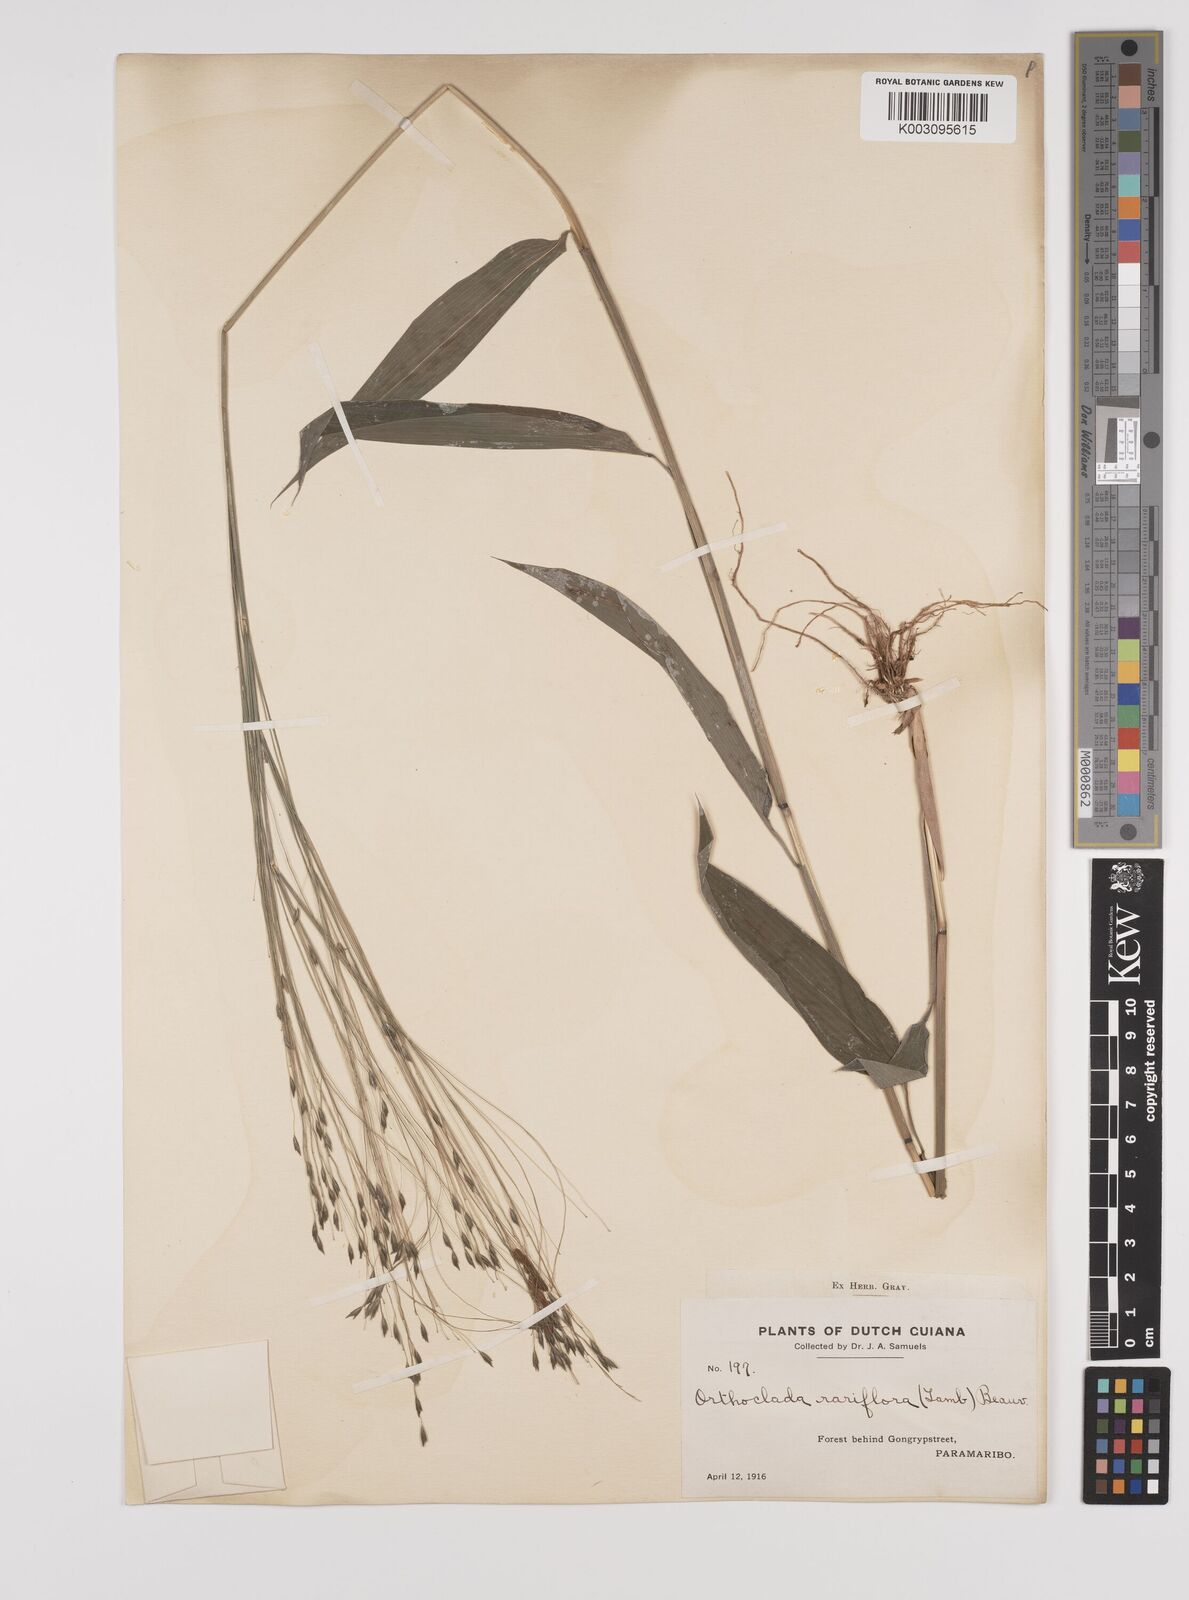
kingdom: Plantae
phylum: Tracheophyta
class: Liliopsida
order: Poales
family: Poaceae
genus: Orthoclada
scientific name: Orthoclada laxa
